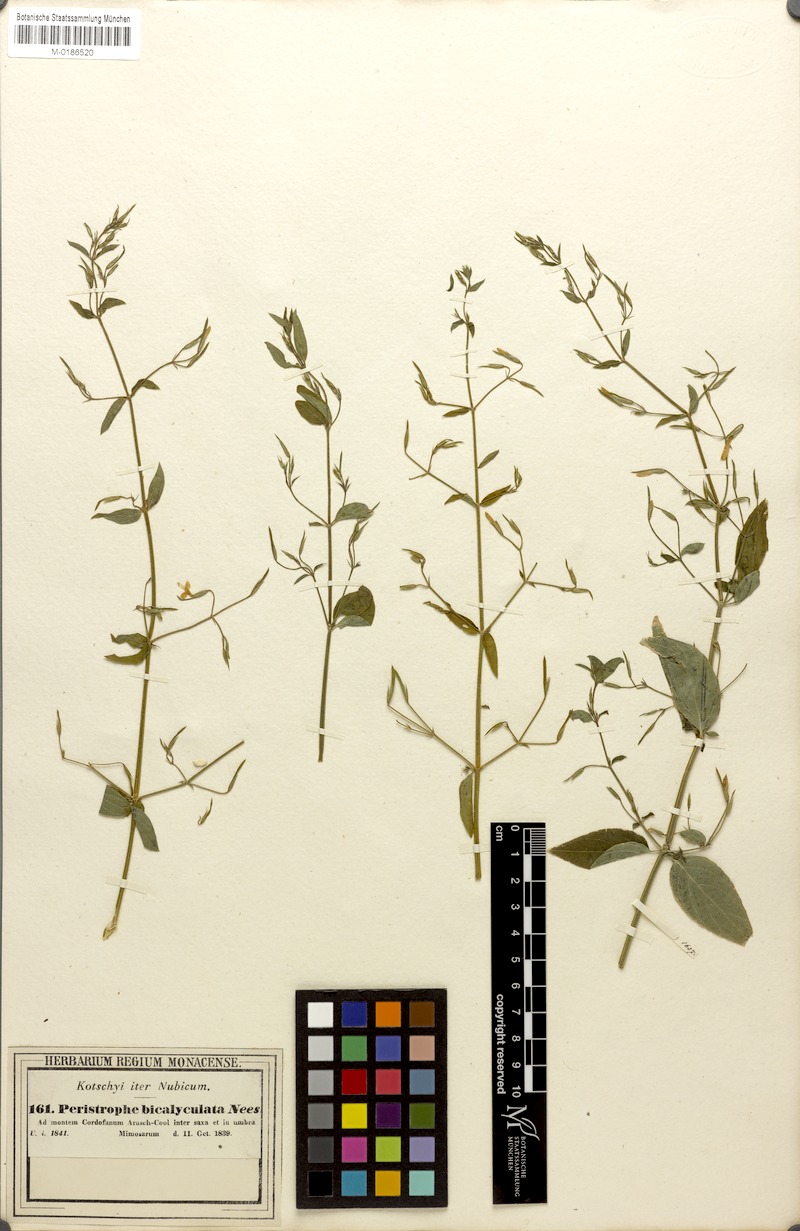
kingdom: Plantae
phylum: Tracheophyta
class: Magnoliopsida
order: Lamiales
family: Acanthaceae
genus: Dicliptera
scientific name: Dicliptera paniculata
